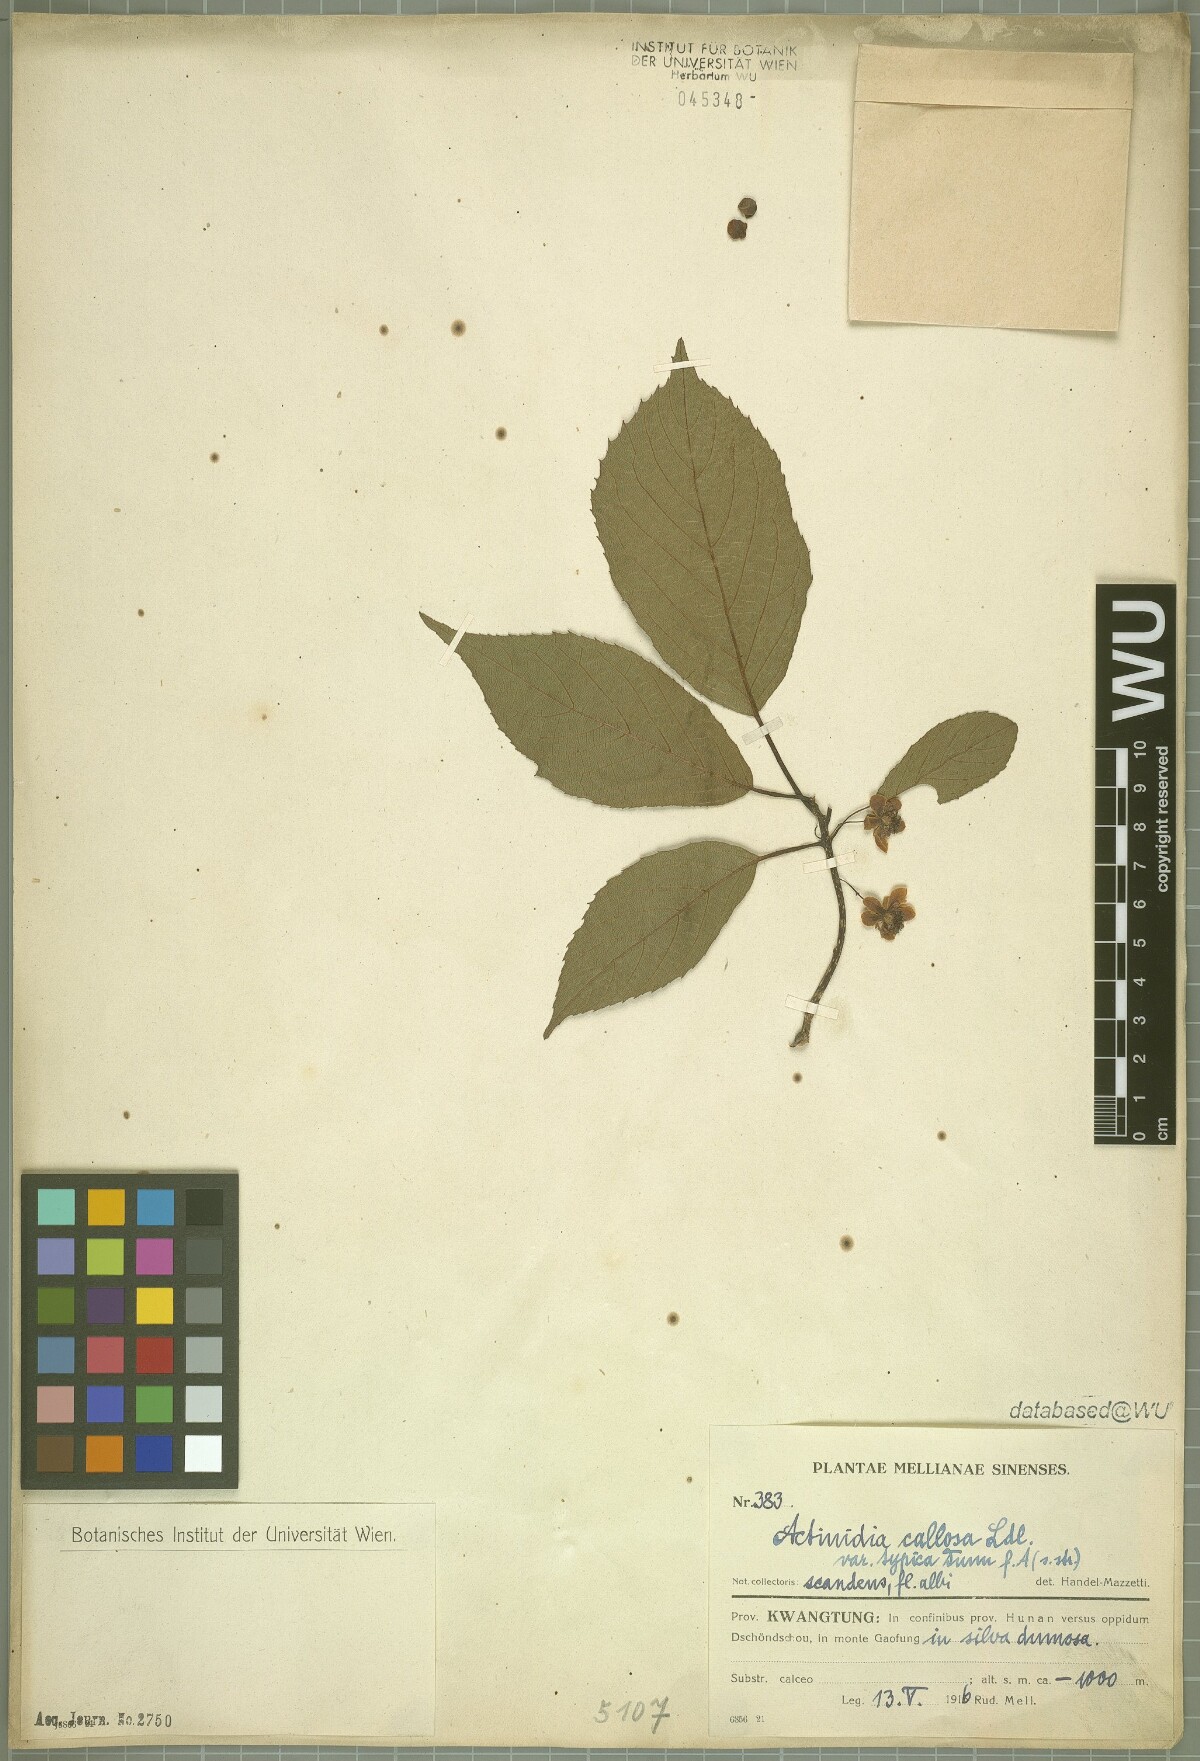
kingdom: Plantae
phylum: Tracheophyta
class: Magnoliopsida
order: Ericales
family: Actinidiaceae
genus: Actinidia
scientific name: Actinidia callosa
